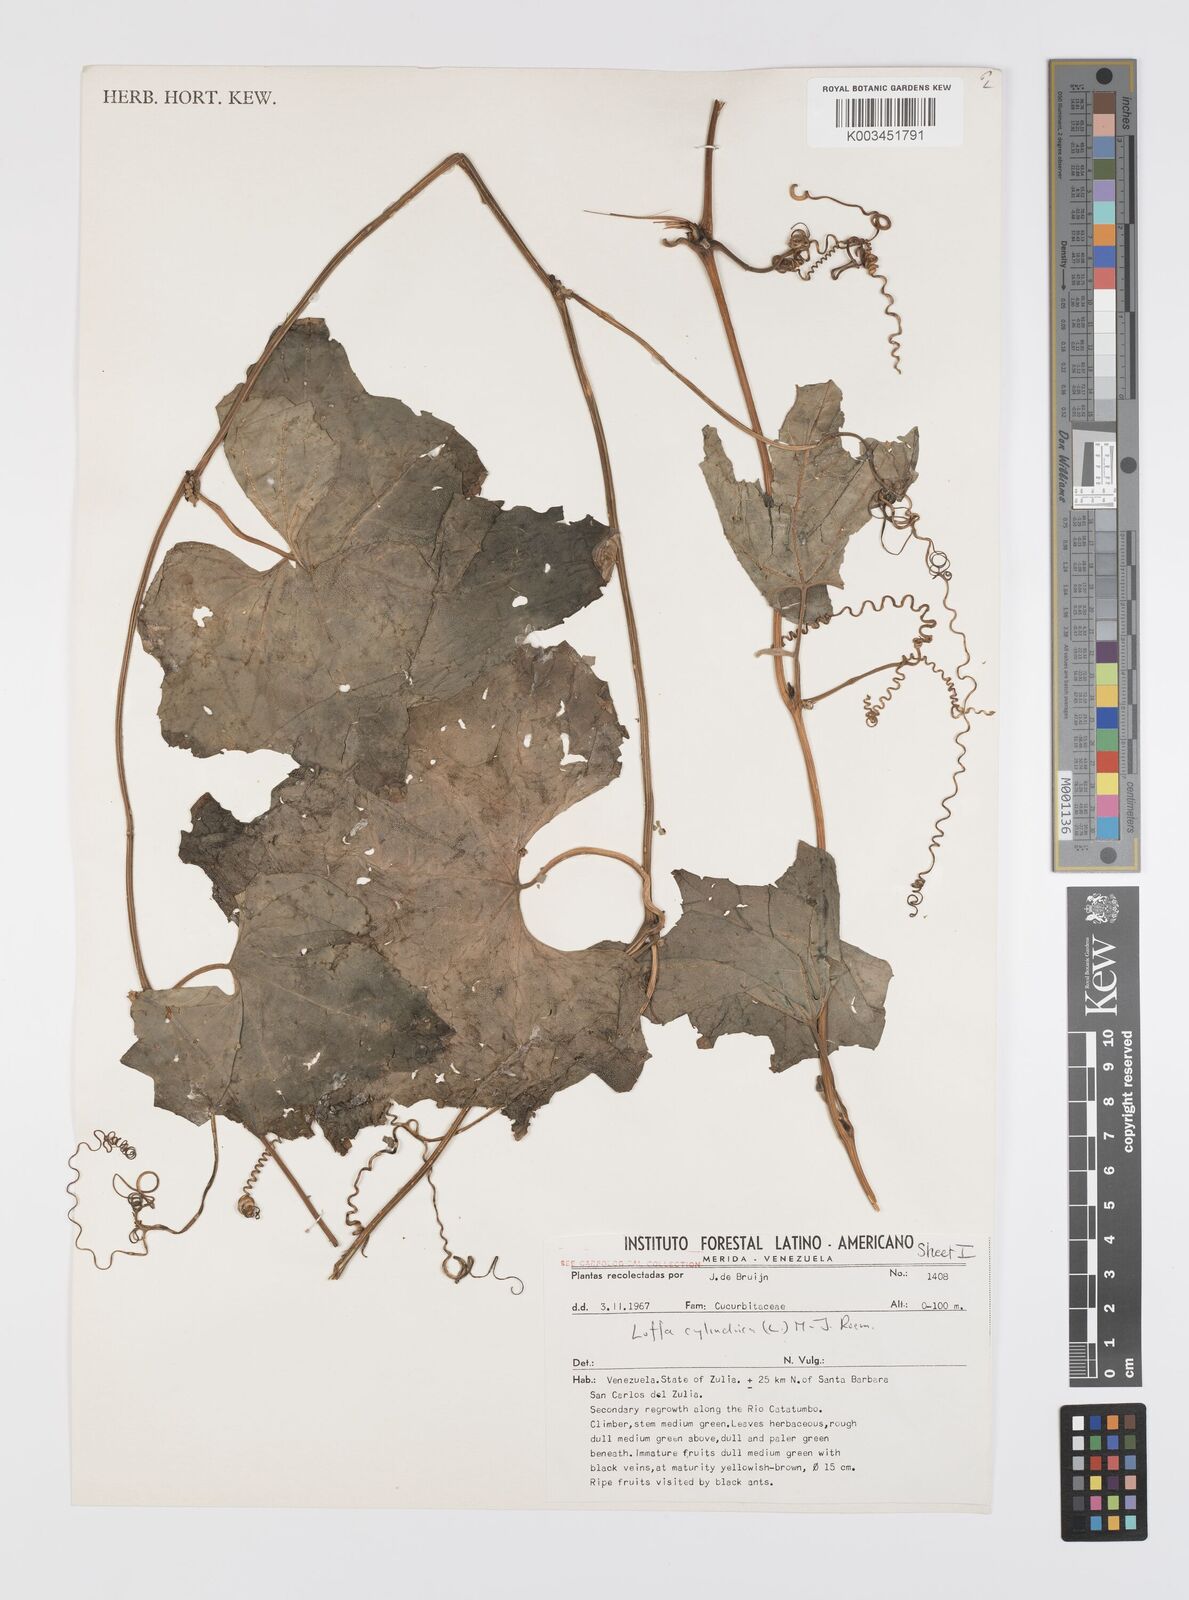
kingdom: Plantae
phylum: Tracheophyta
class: Magnoliopsida
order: Cucurbitales
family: Cucurbitaceae
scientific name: Cucurbitaceae
